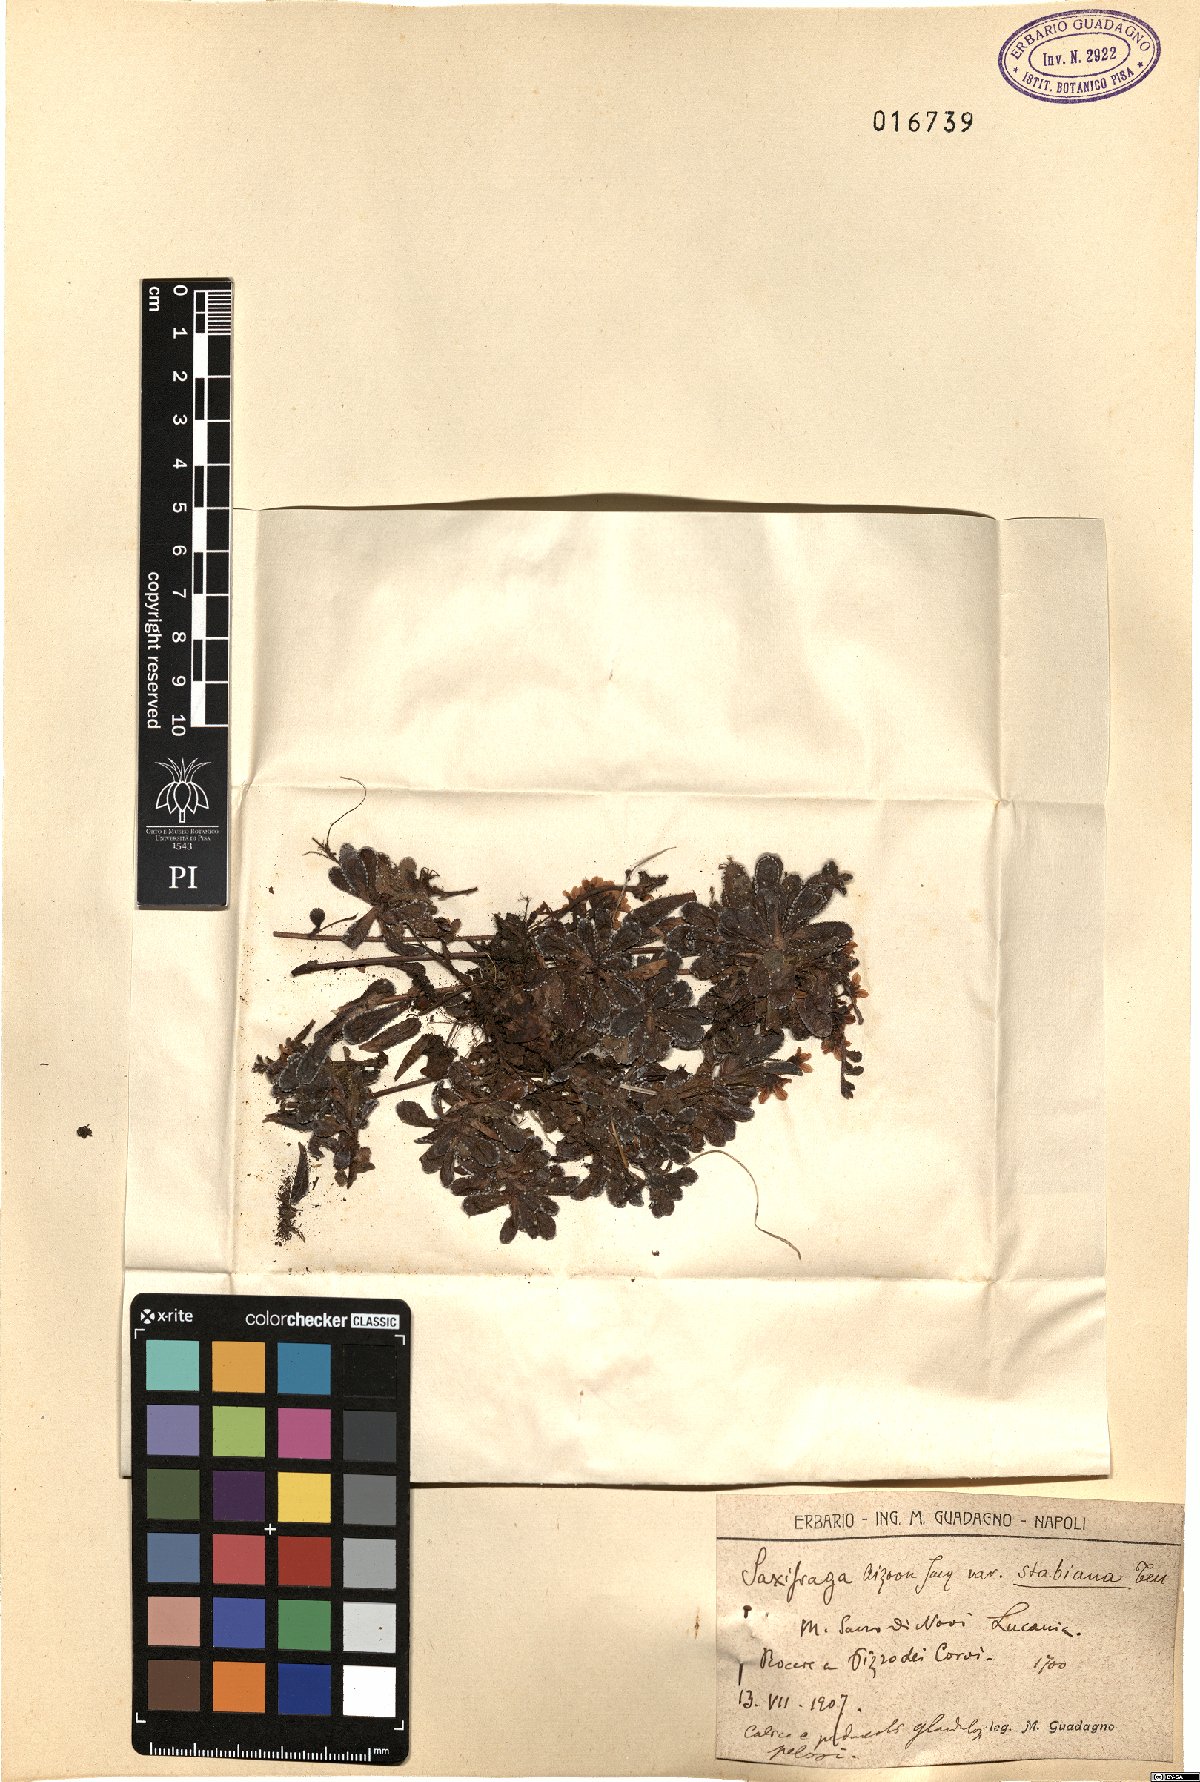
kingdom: Plantae
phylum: Tracheophyta
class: Magnoliopsida
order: Saxifragales
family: Saxifragaceae
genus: Saxifraga
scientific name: Saxifraga paniculata
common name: Livelong saxifrage
